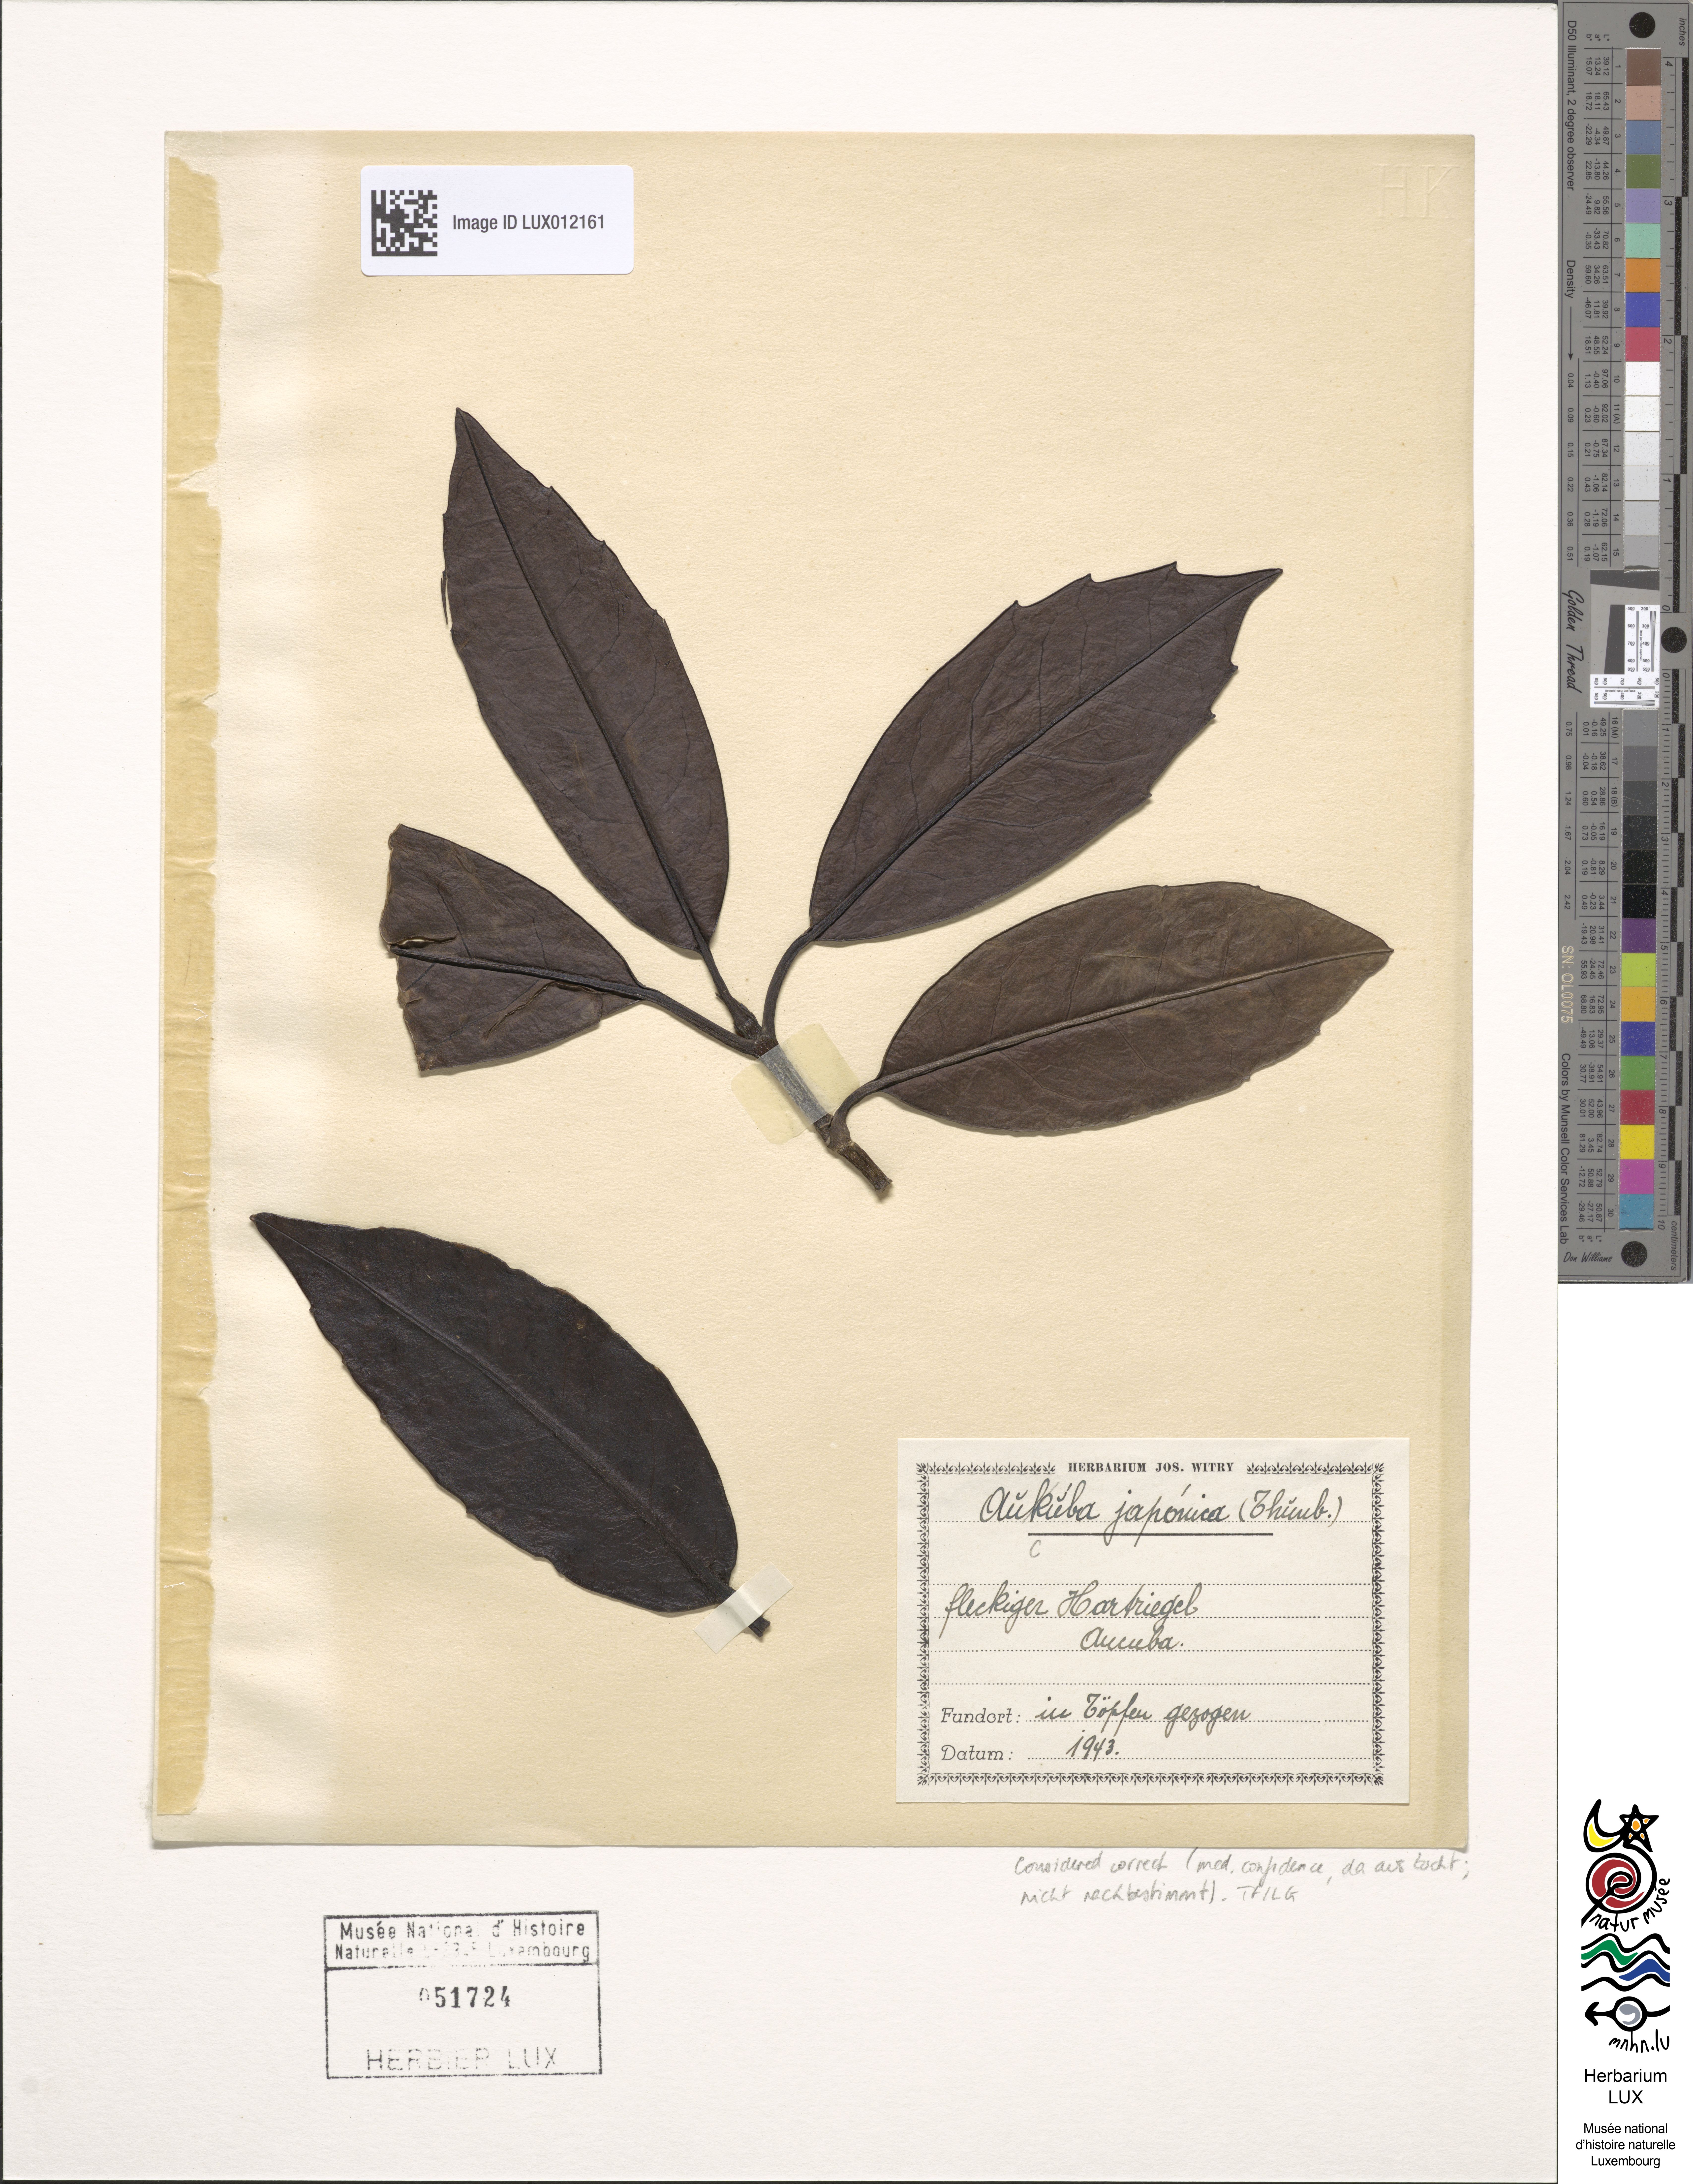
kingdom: Plantae
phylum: Tracheophyta
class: Magnoliopsida
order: Garryales
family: Garryaceae
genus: Aucuba
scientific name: Aucuba japonica
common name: Spotted-laurel
